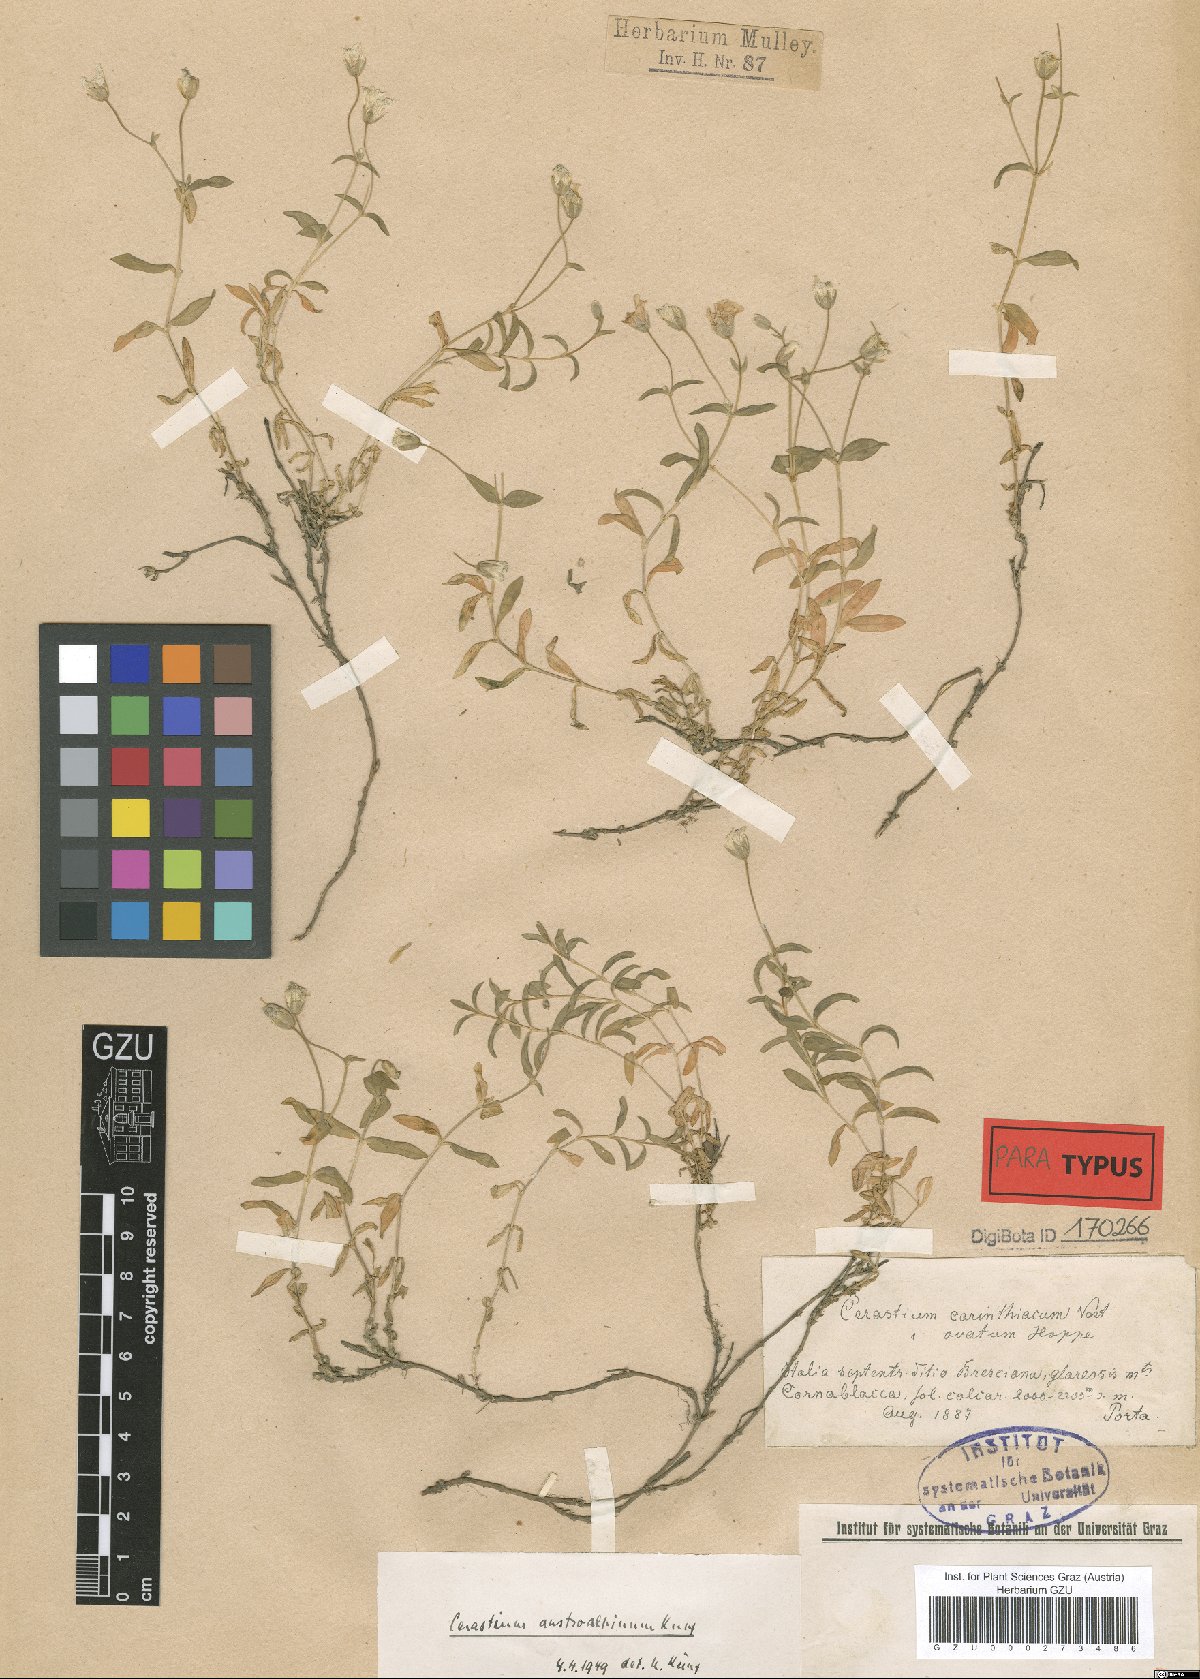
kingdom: Plantae
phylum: Tracheophyta
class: Magnoliopsida
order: Caryophyllales
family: Caryophyllaceae
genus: Cerastium
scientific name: Cerastium carinthiacum
